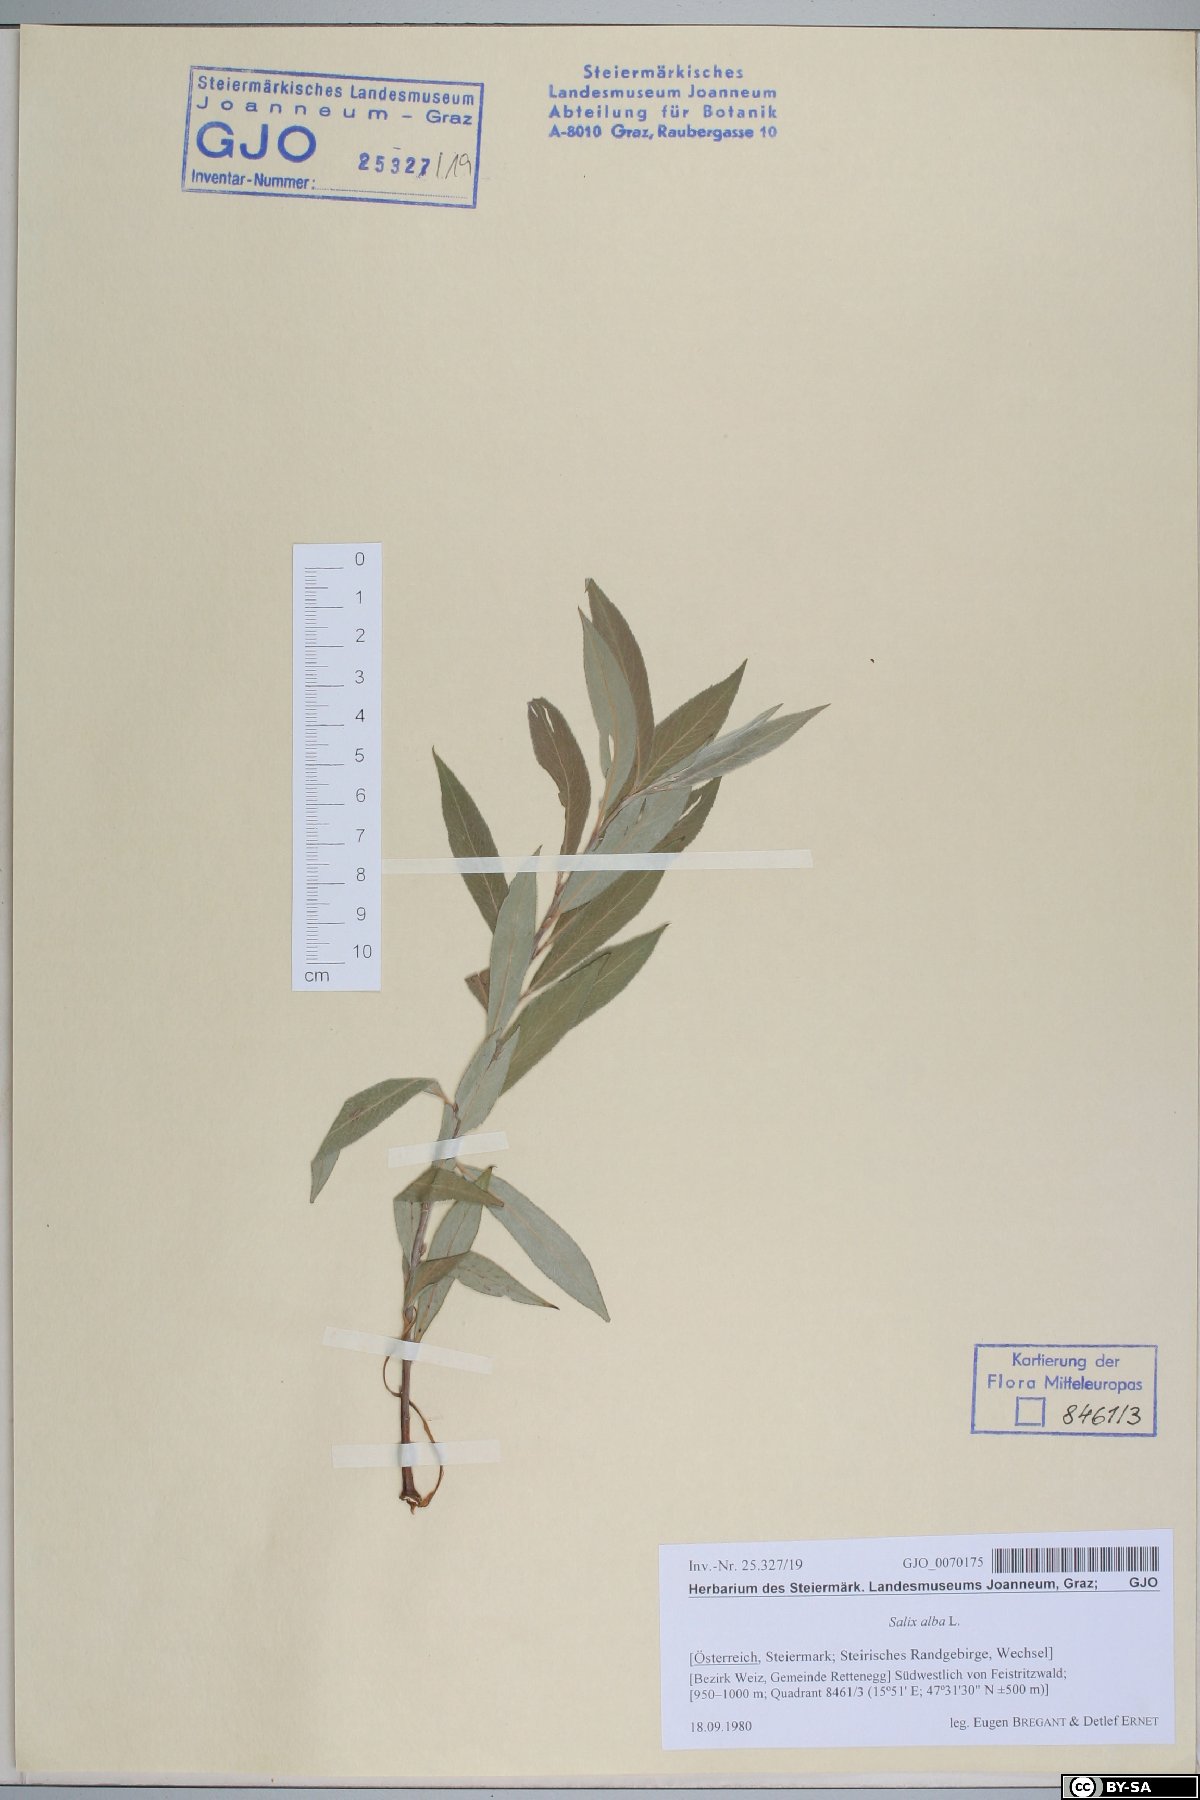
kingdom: Plantae
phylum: Tracheophyta
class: Magnoliopsida
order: Malpighiales
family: Salicaceae
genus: Salix
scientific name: Salix alba
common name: White willow
